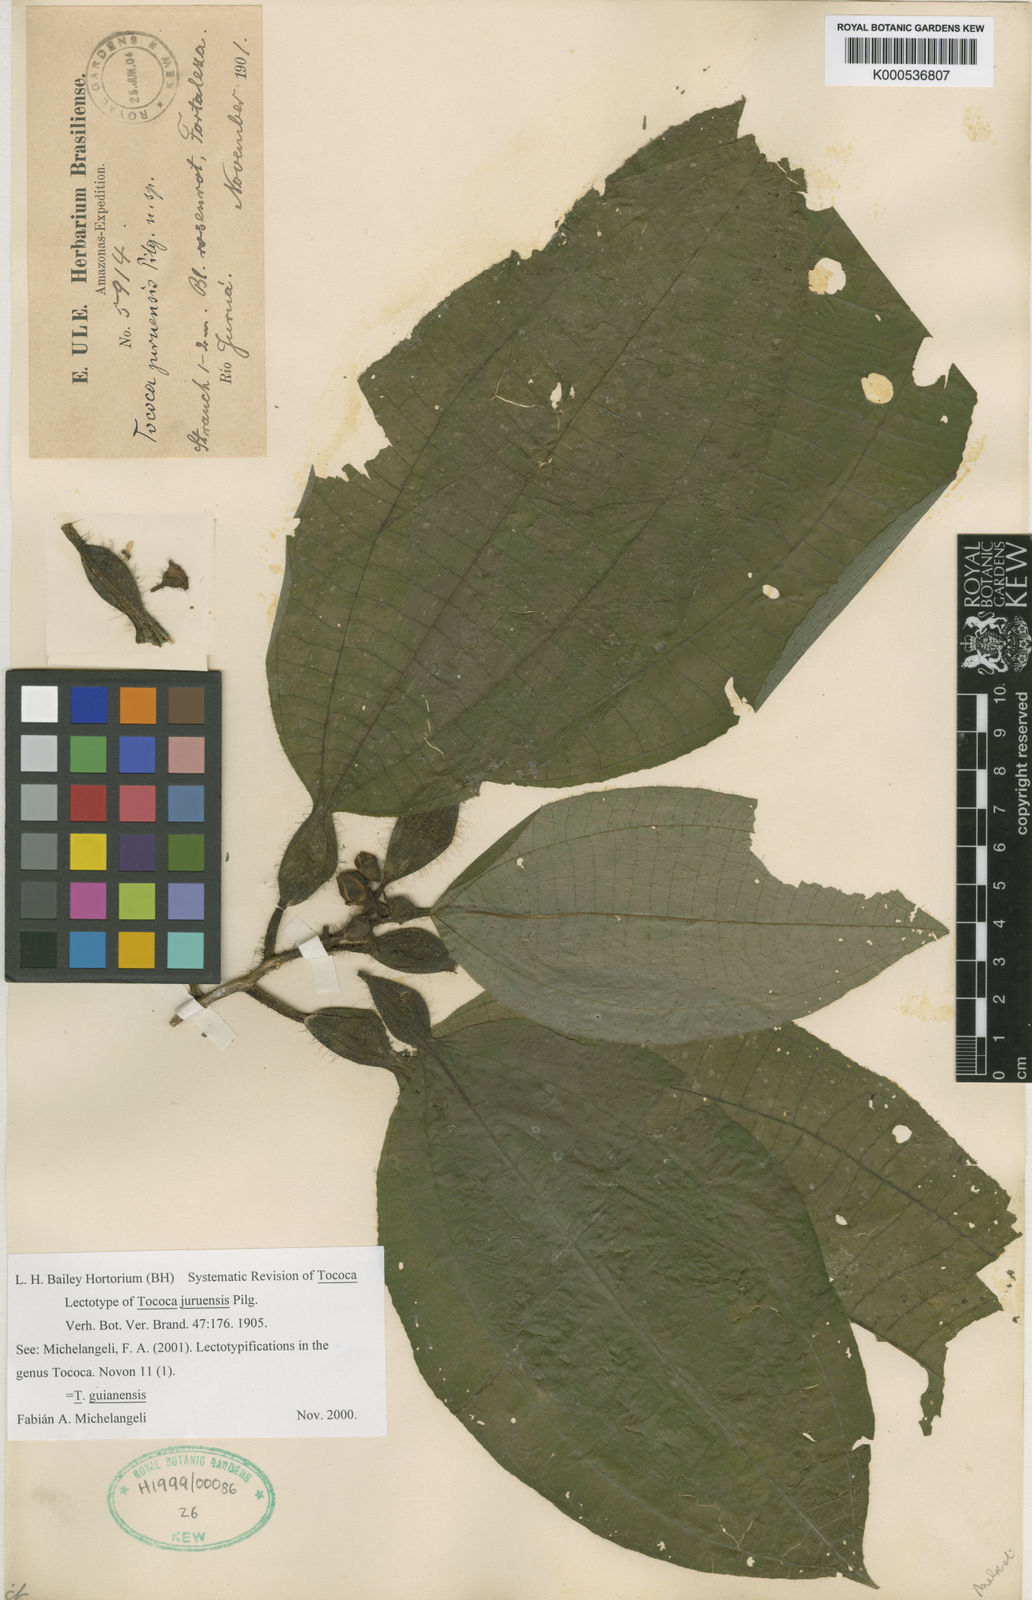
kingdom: Plantae
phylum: Tracheophyta
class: Magnoliopsida
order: Myrtales
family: Melastomataceae
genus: Miconia
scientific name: Miconia tococa
